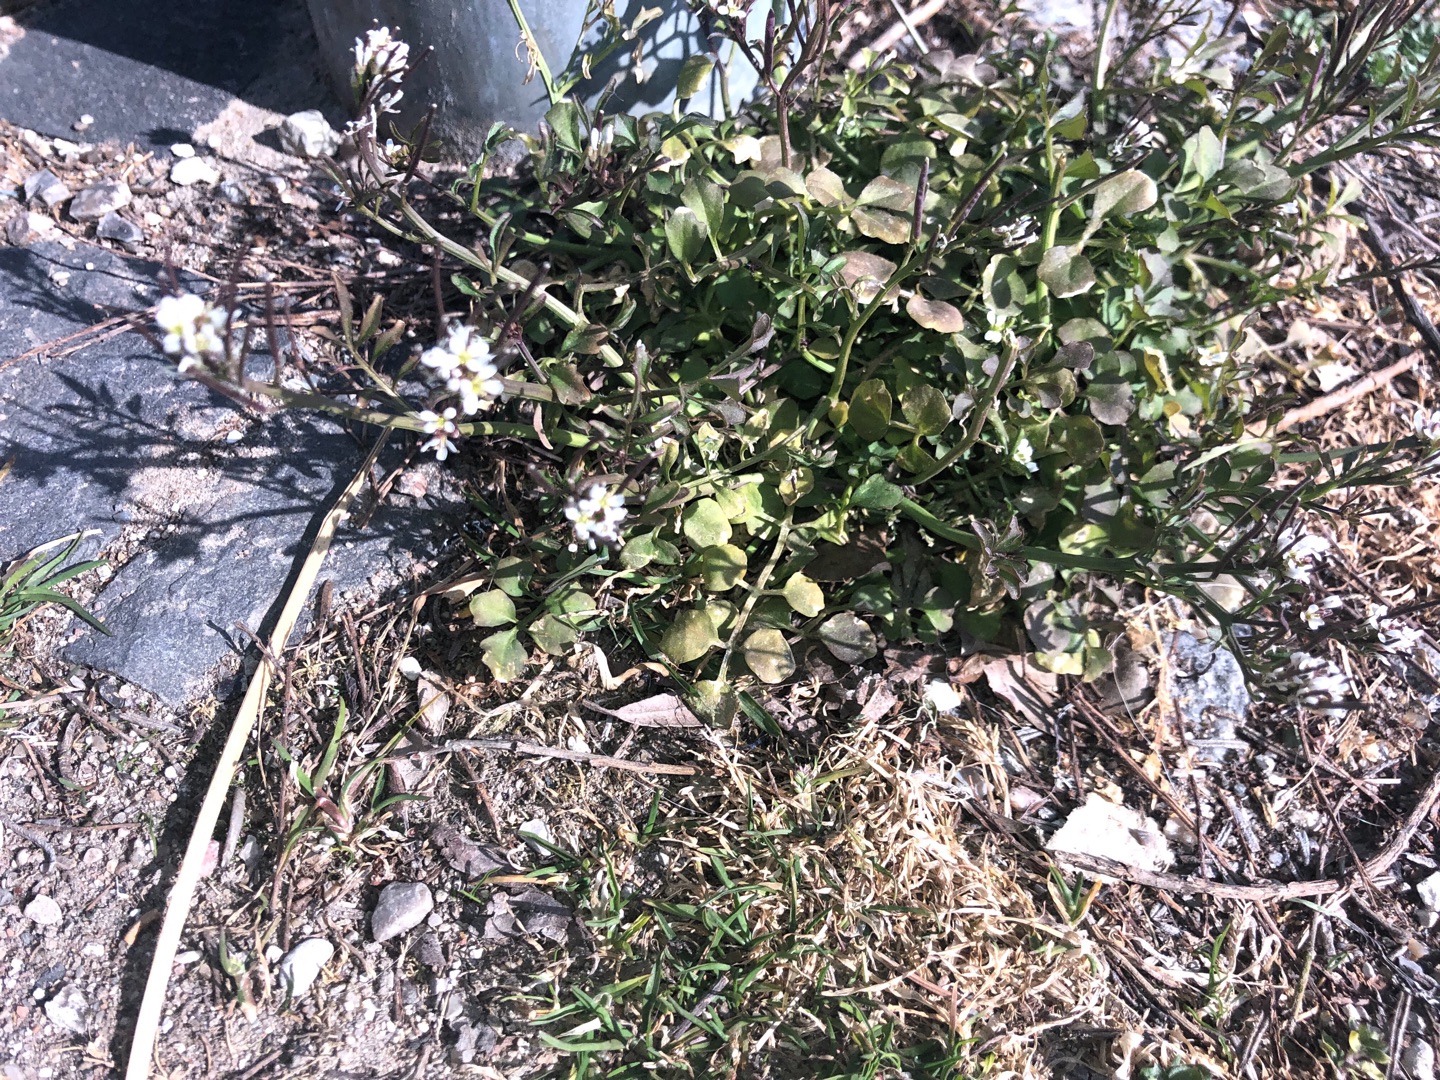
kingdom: Plantae
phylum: Tracheophyta
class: Magnoliopsida
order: Brassicales
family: Brassicaceae
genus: Cardamine
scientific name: Cardamine hirsuta
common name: Roset-springklap
